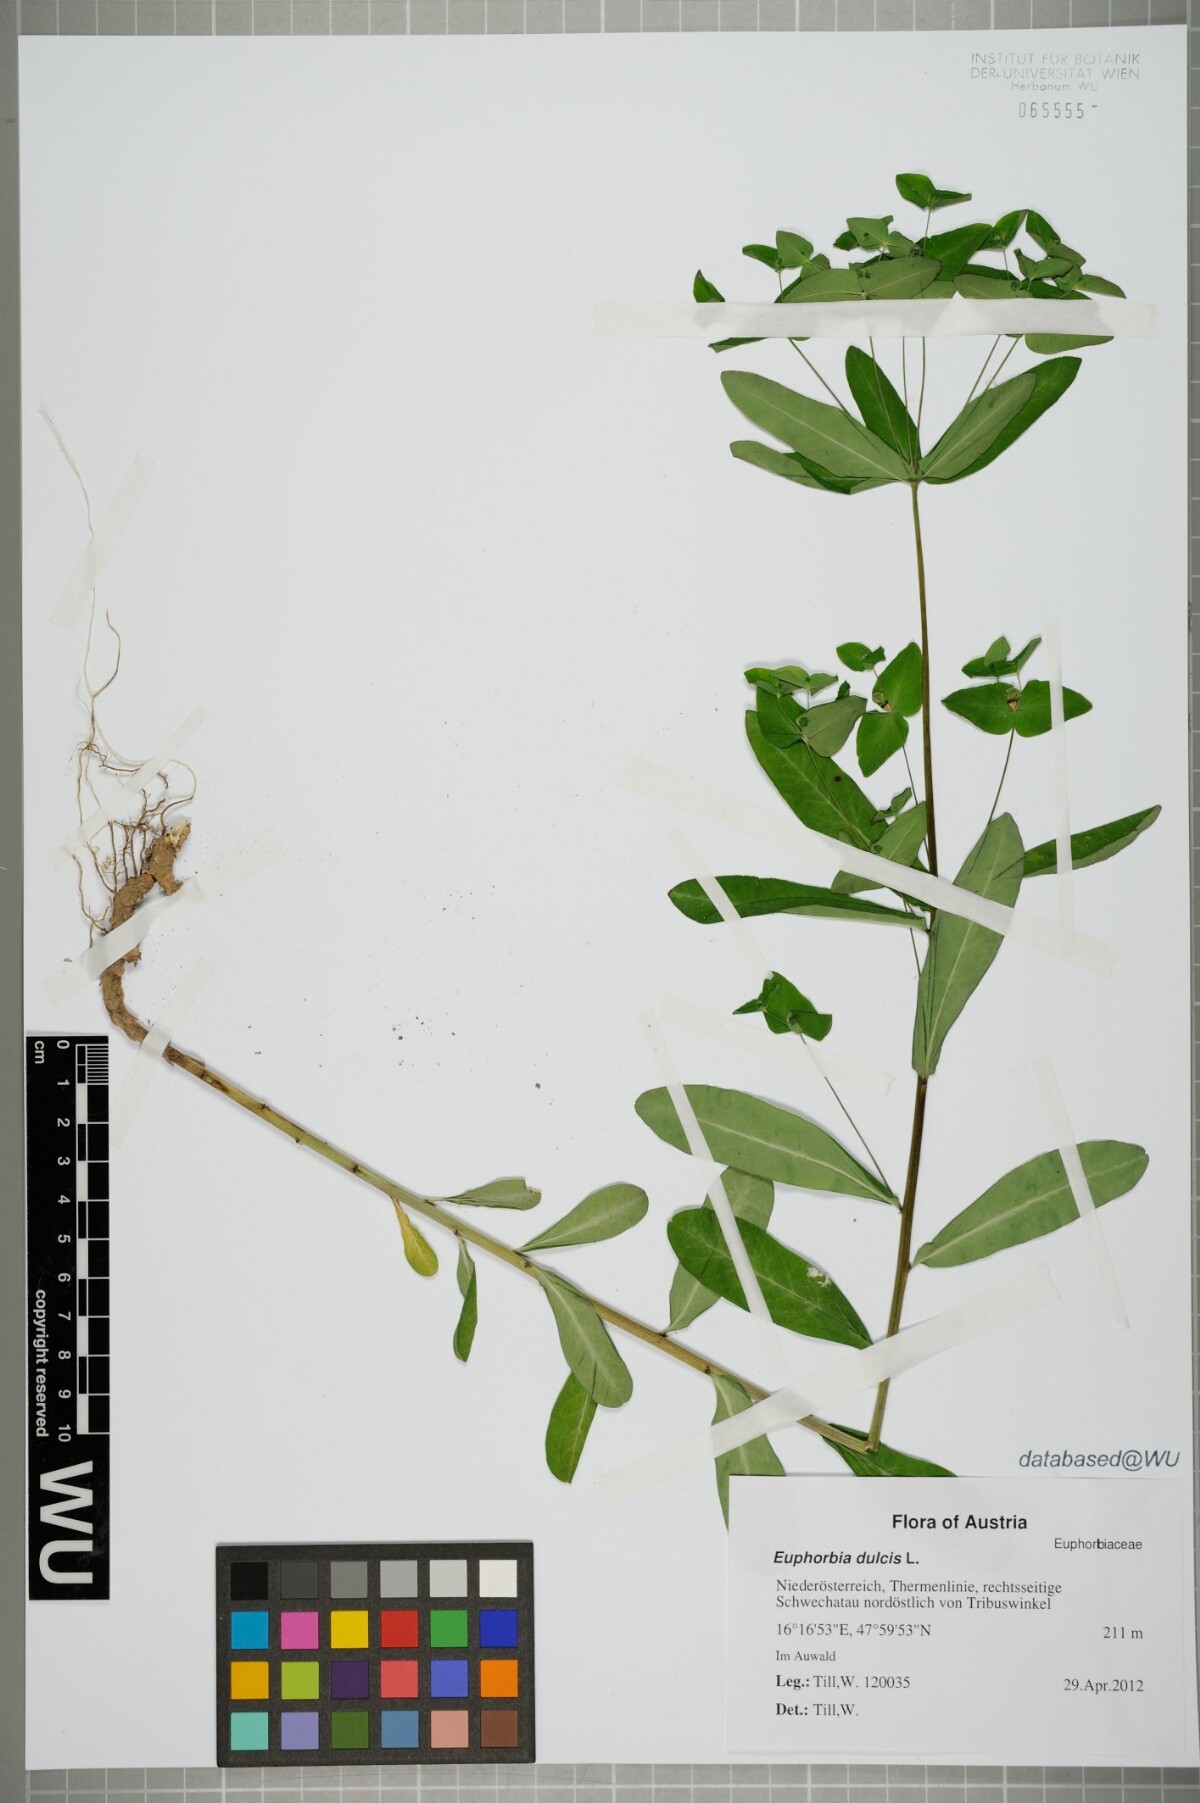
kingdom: Plantae
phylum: Tracheophyta
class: Magnoliopsida
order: Malpighiales
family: Euphorbiaceae
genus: Euphorbia
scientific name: Euphorbia dulcis
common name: Sweet spurge
